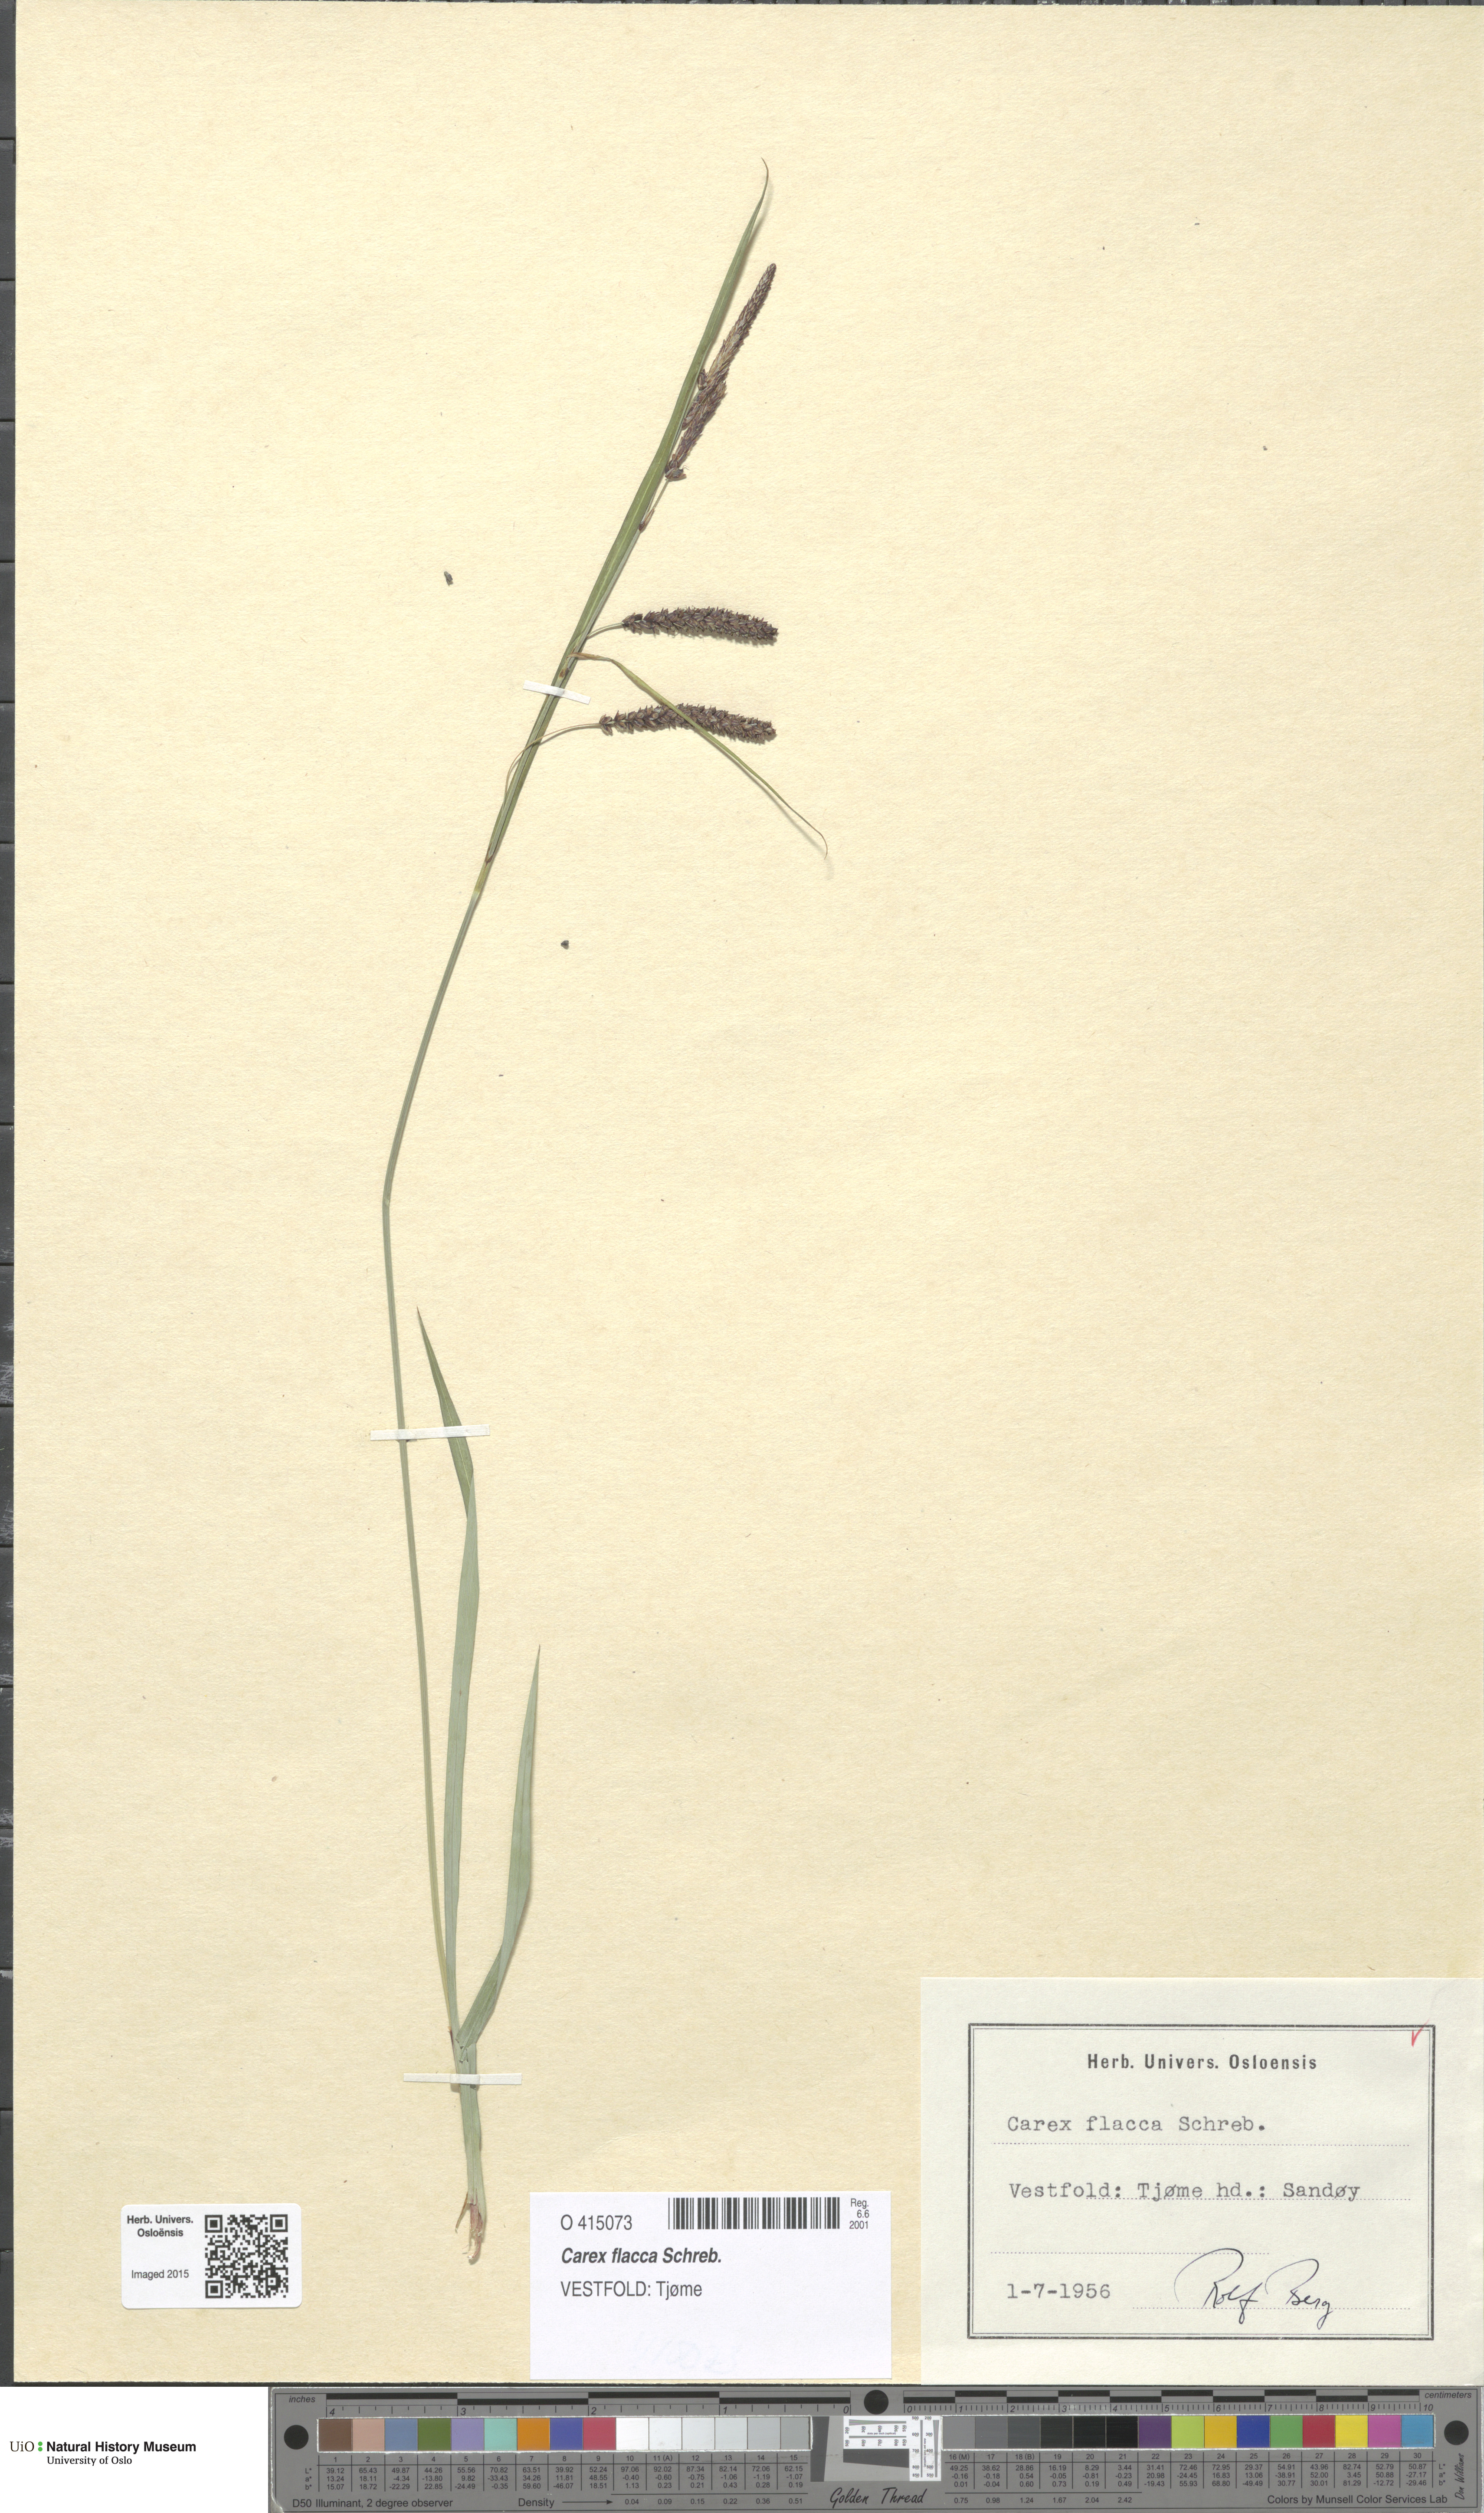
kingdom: Plantae
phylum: Tracheophyta
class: Liliopsida
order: Poales
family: Cyperaceae
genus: Carex
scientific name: Carex flacca
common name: Glaucous sedge
